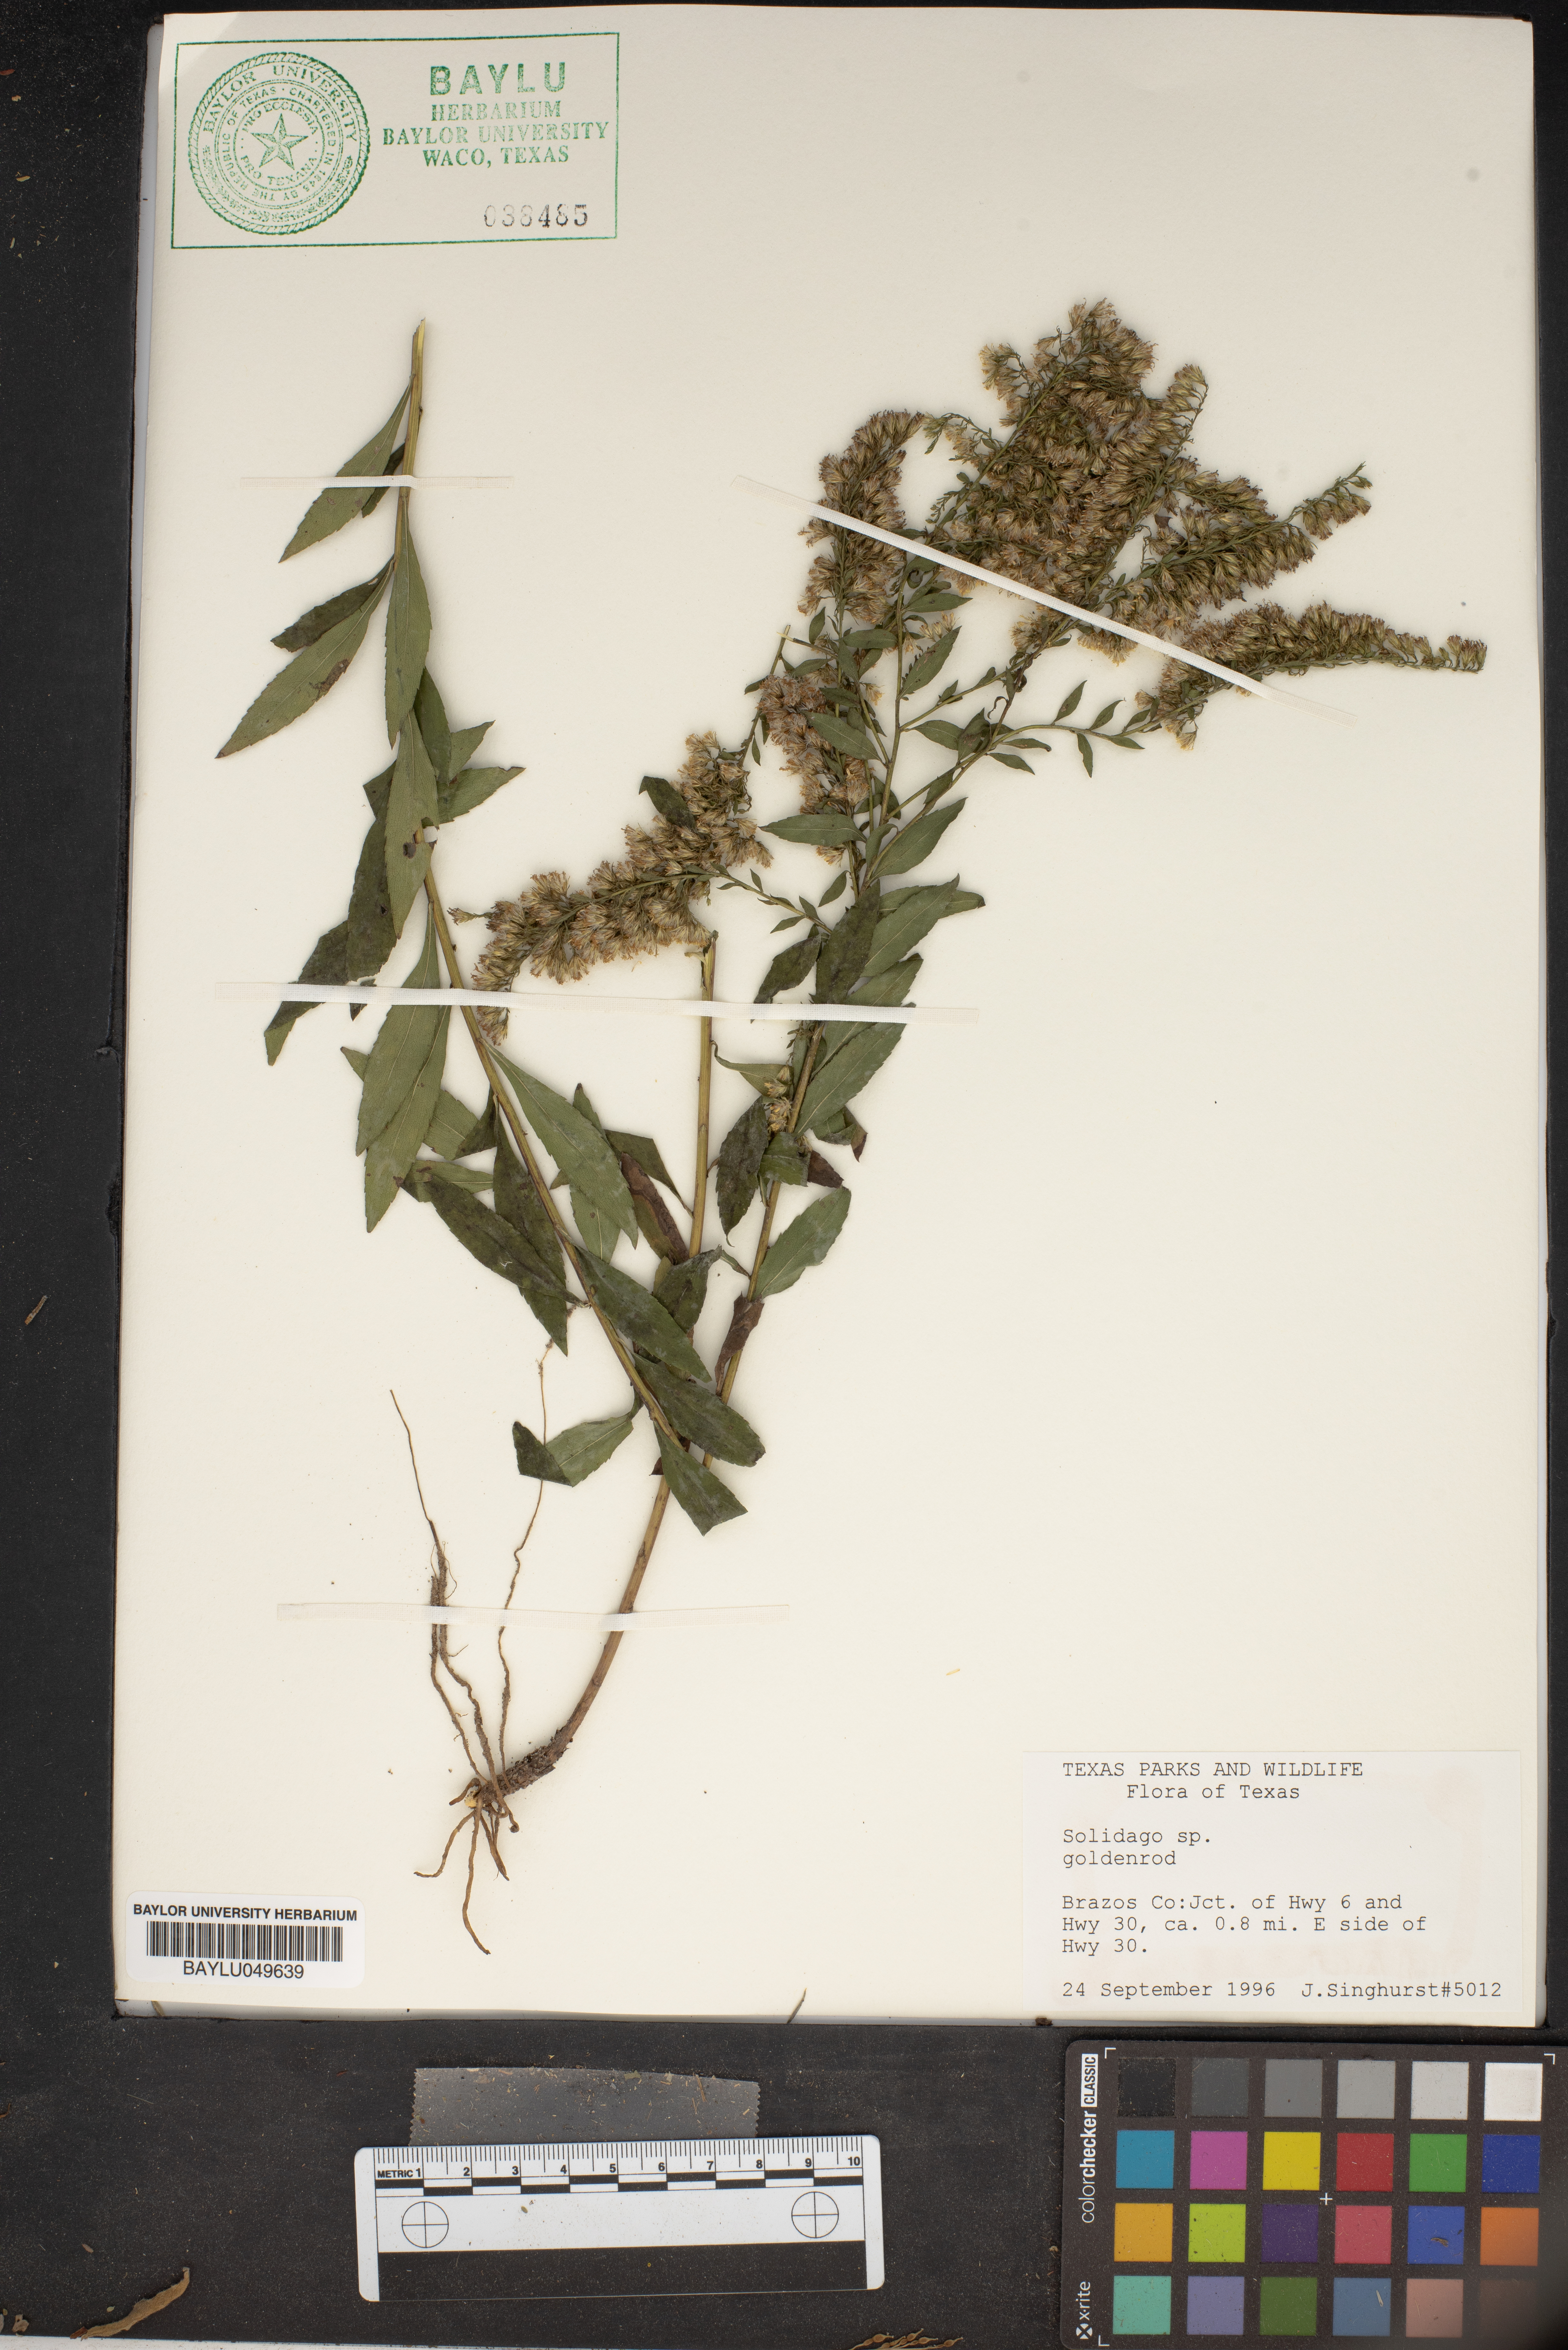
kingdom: Plantae
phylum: Tracheophyta
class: Magnoliopsida
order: Asterales
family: Asteraceae
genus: Solidago
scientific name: Solidago
